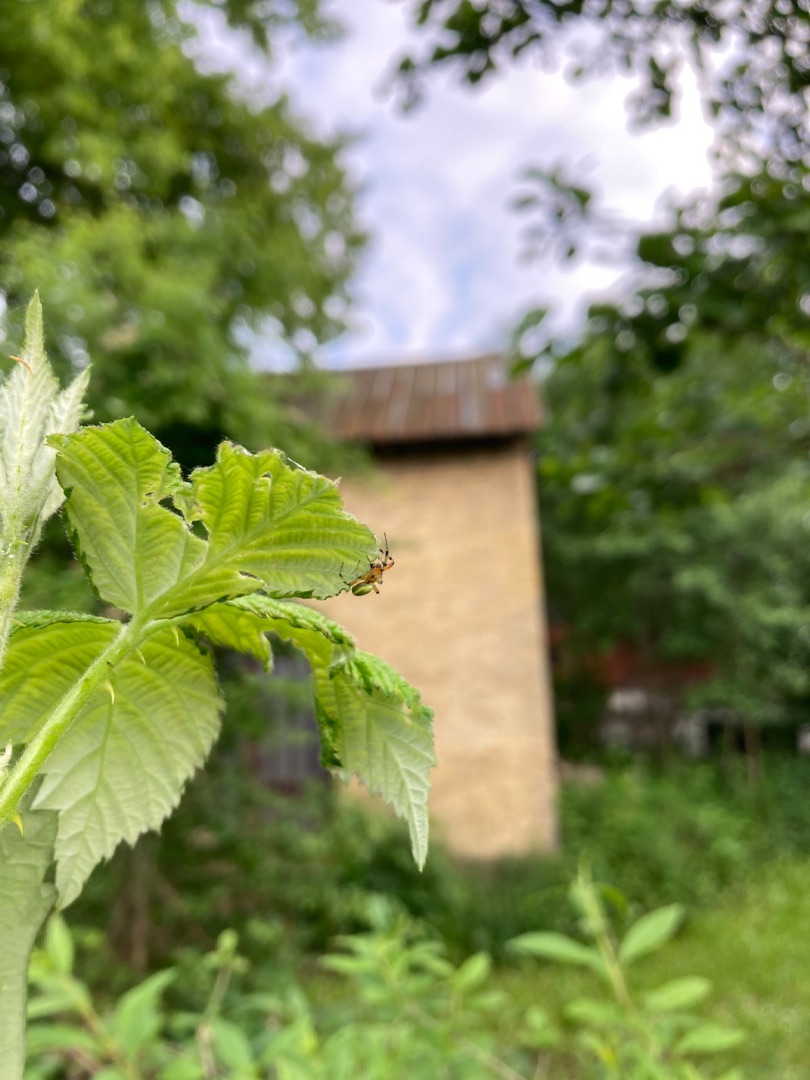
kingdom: Animalia
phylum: Arthropoda
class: Arachnida
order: Araneae
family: Araneidae
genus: Araniella
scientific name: Araniella
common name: Agurkeedderkopslægten
